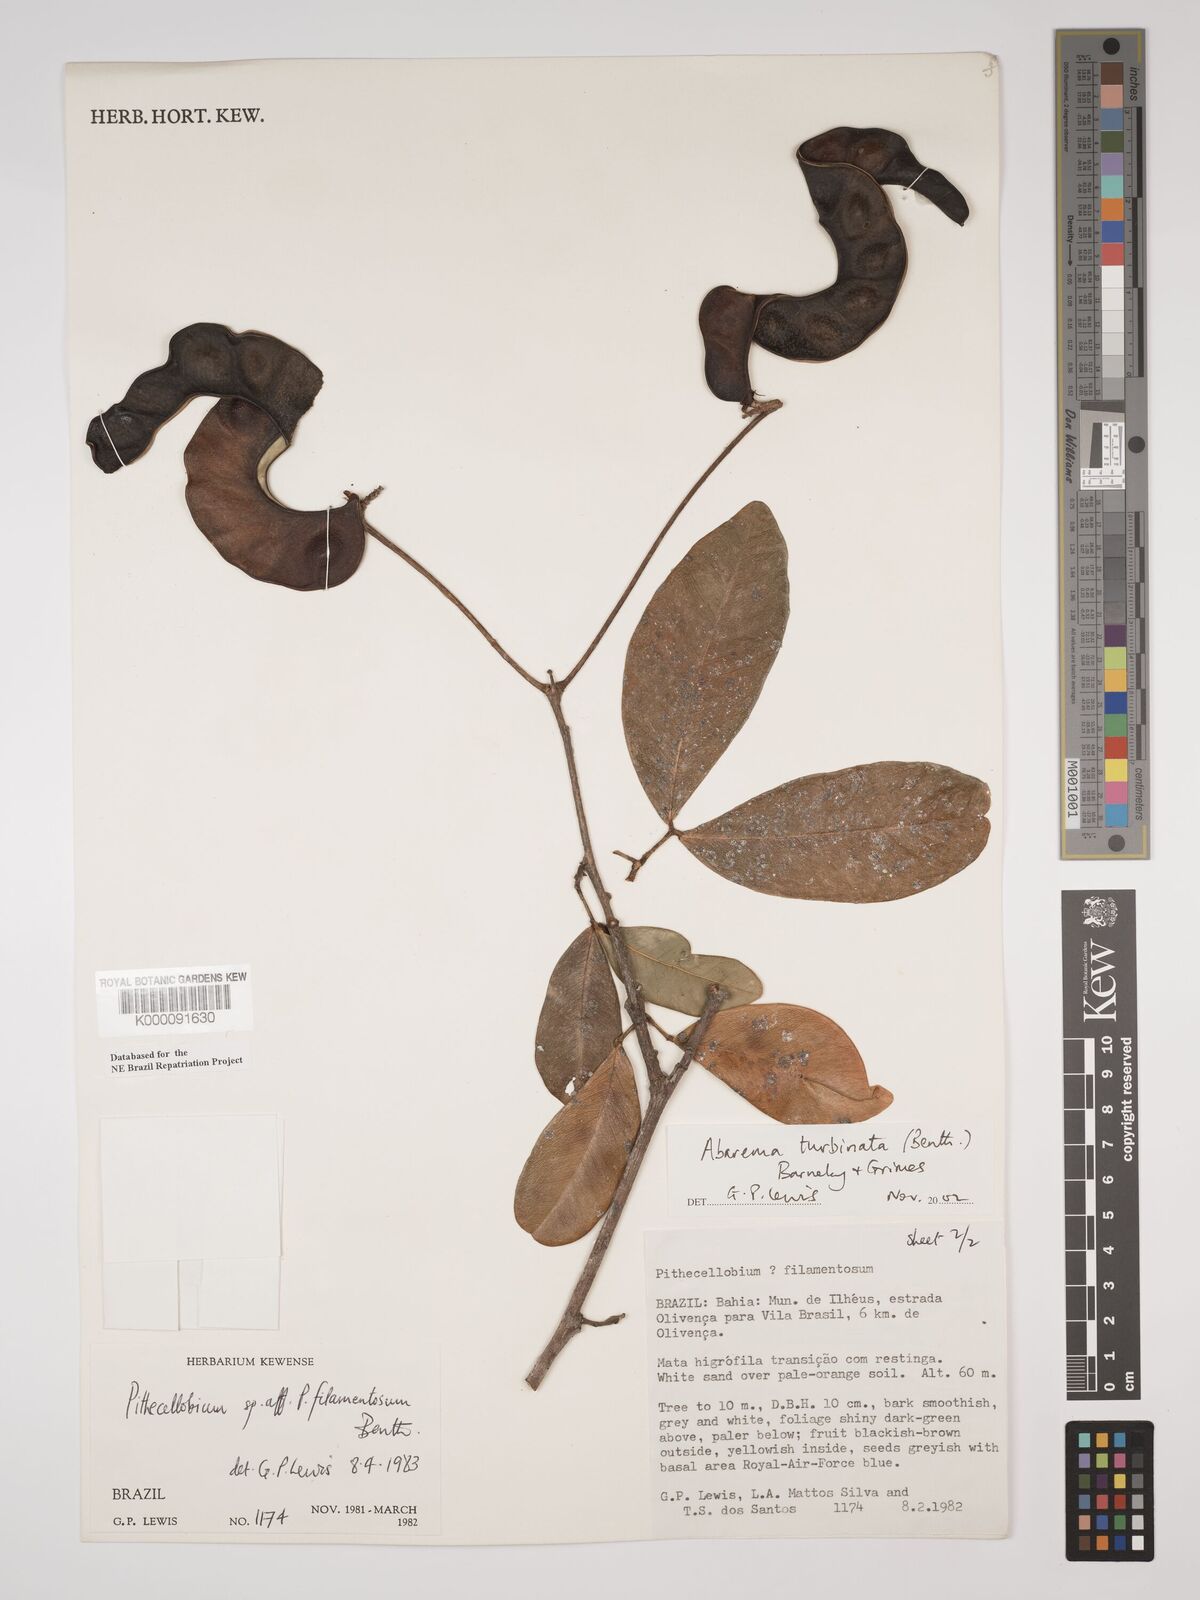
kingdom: Plantae
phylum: Tracheophyta
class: Magnoliopsida
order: Fabales
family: Fabaceae
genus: Jupunba
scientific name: Jupunba turbinata
